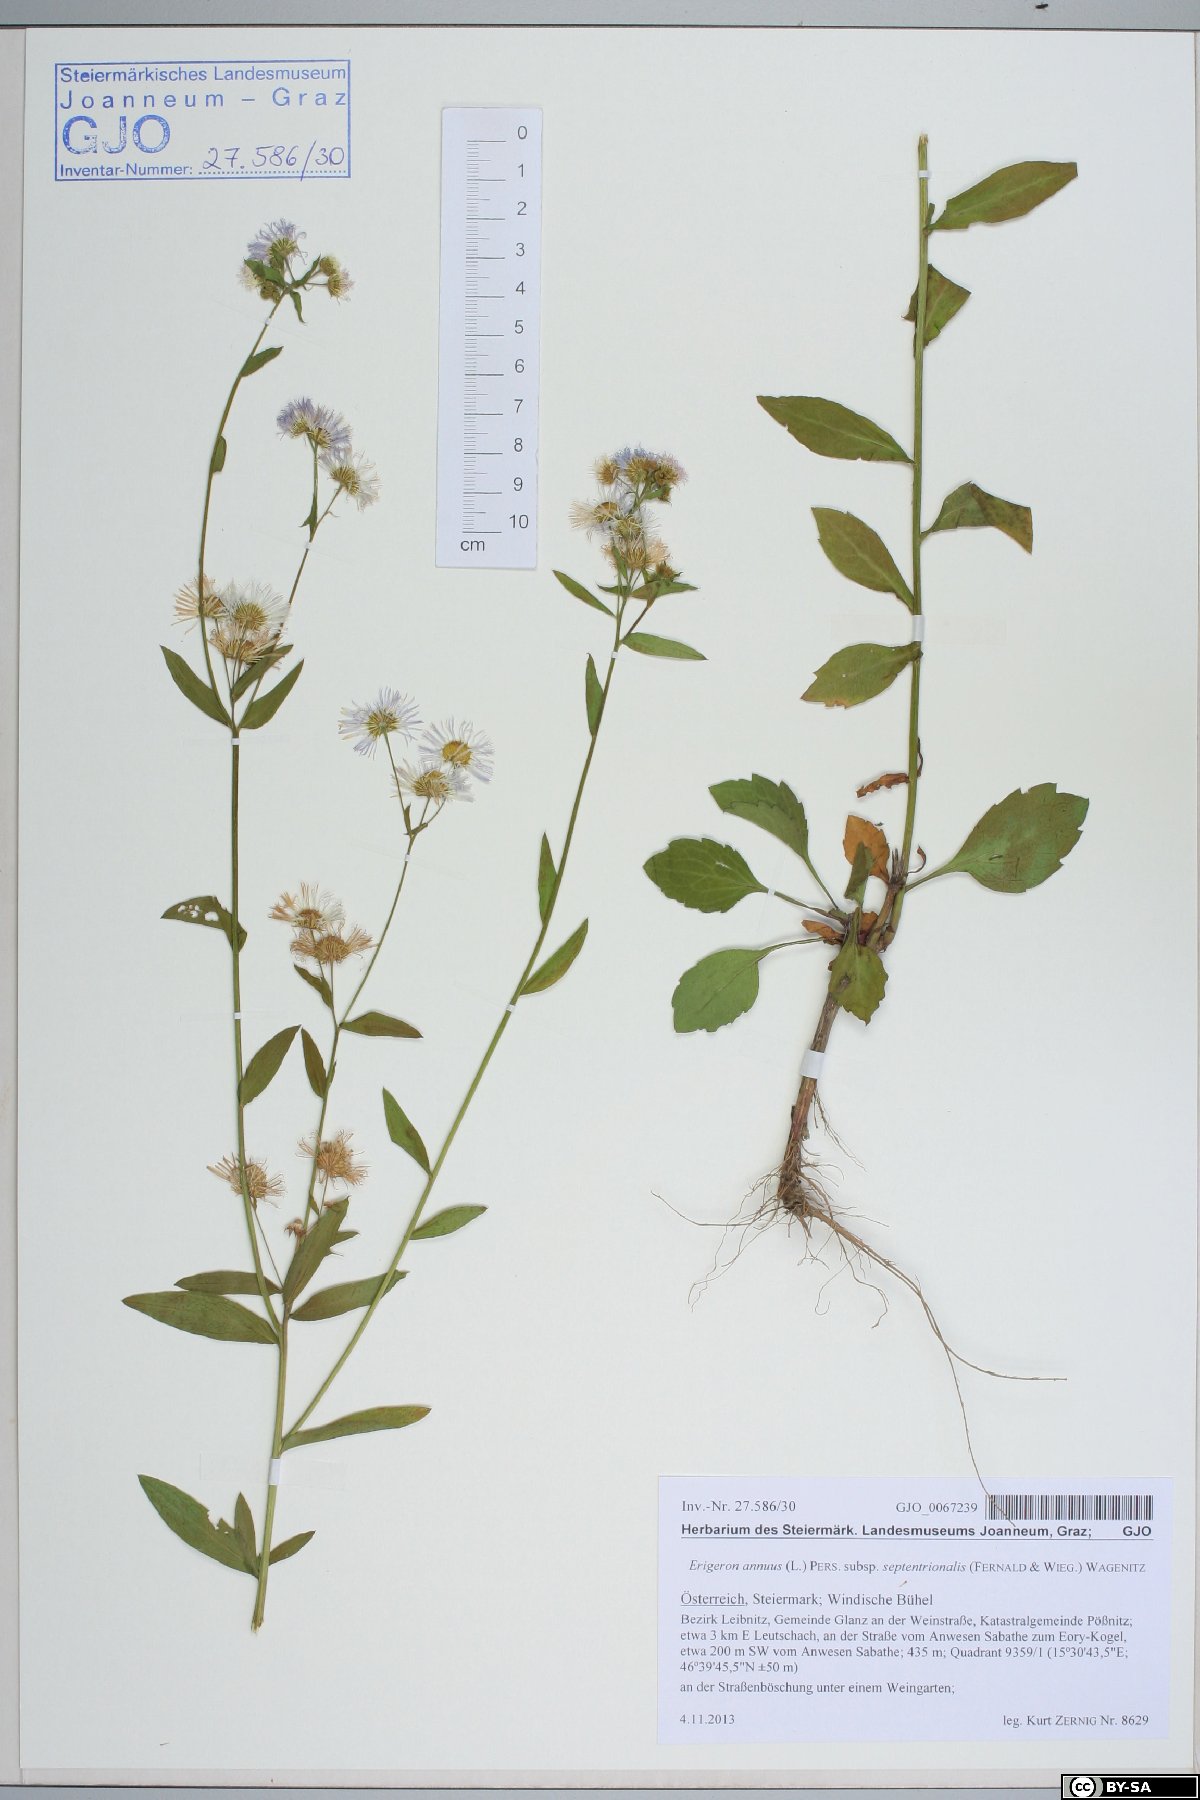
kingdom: Plantae
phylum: Tracheophyta
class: Magnoliopsida
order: Asterales
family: Asteraceae
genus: Erigeron
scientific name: Erigeron annuus
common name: Tall fleabane
